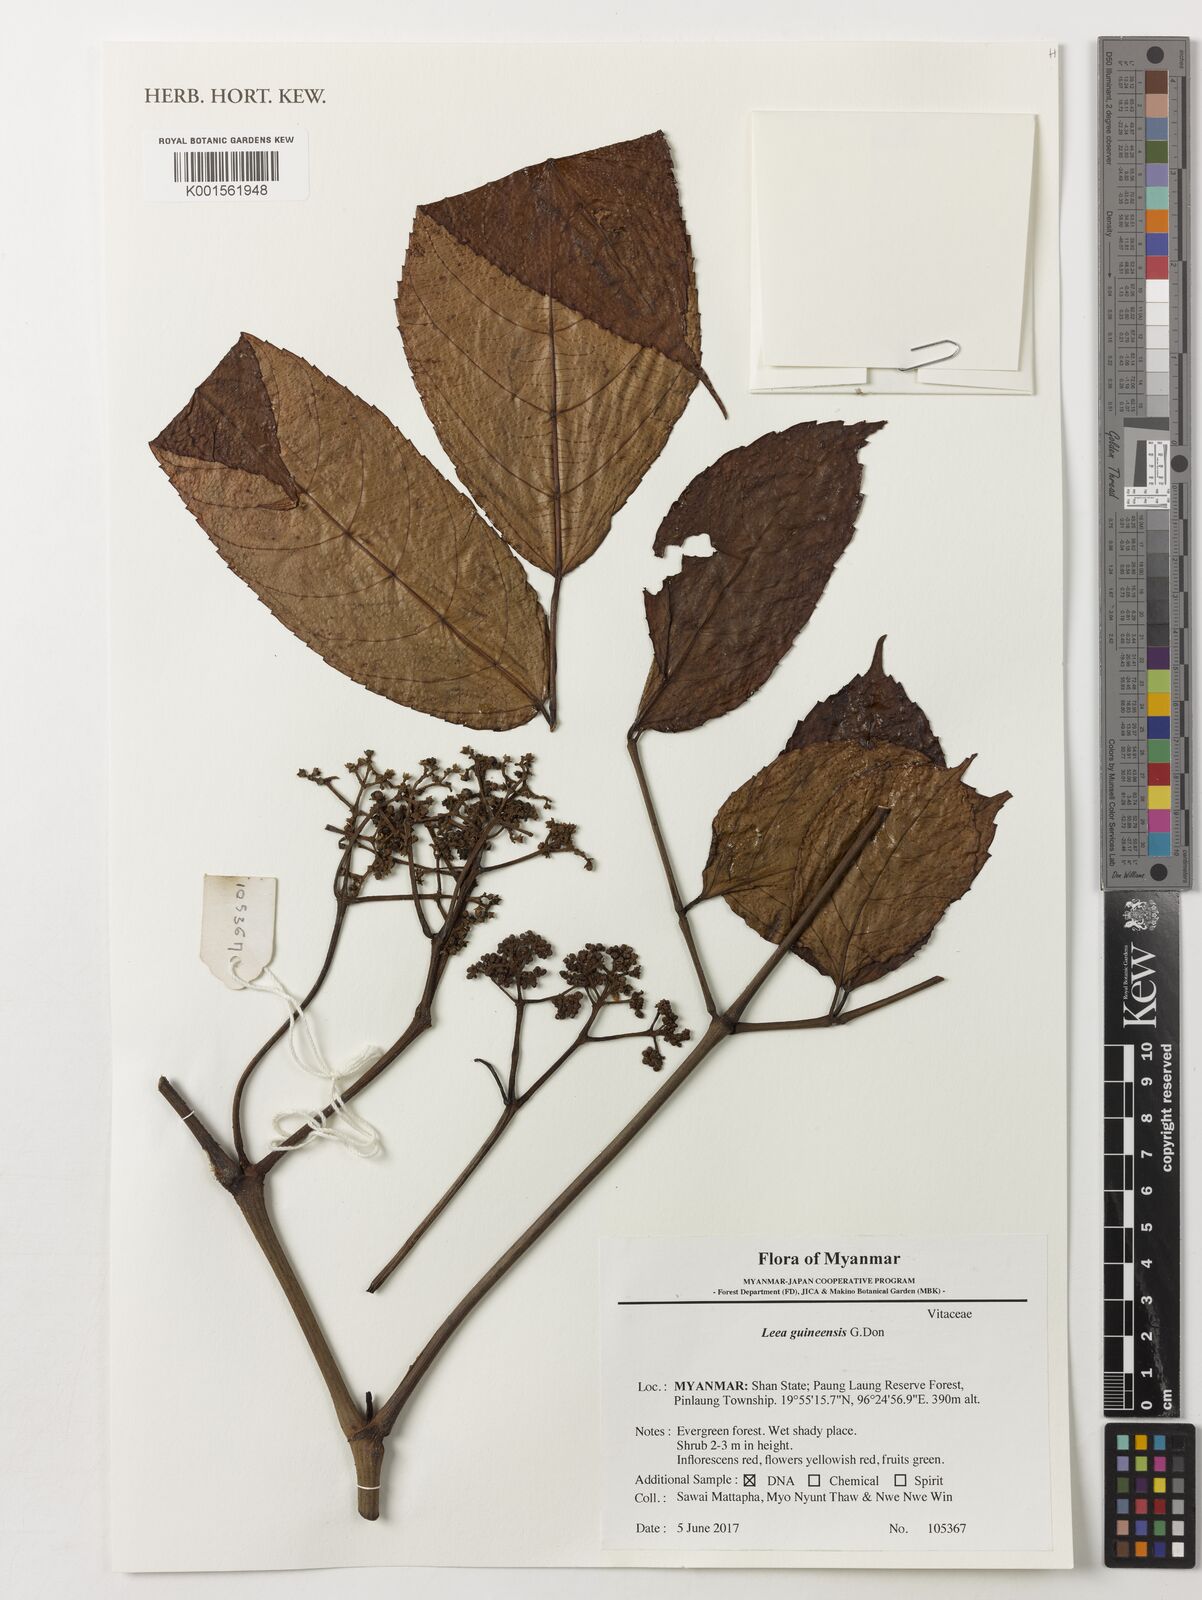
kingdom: Plantae
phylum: Tracheophyta
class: Magnoliopsida
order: Vitales
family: Vitaceae
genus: Leea
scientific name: Leea guineensis
